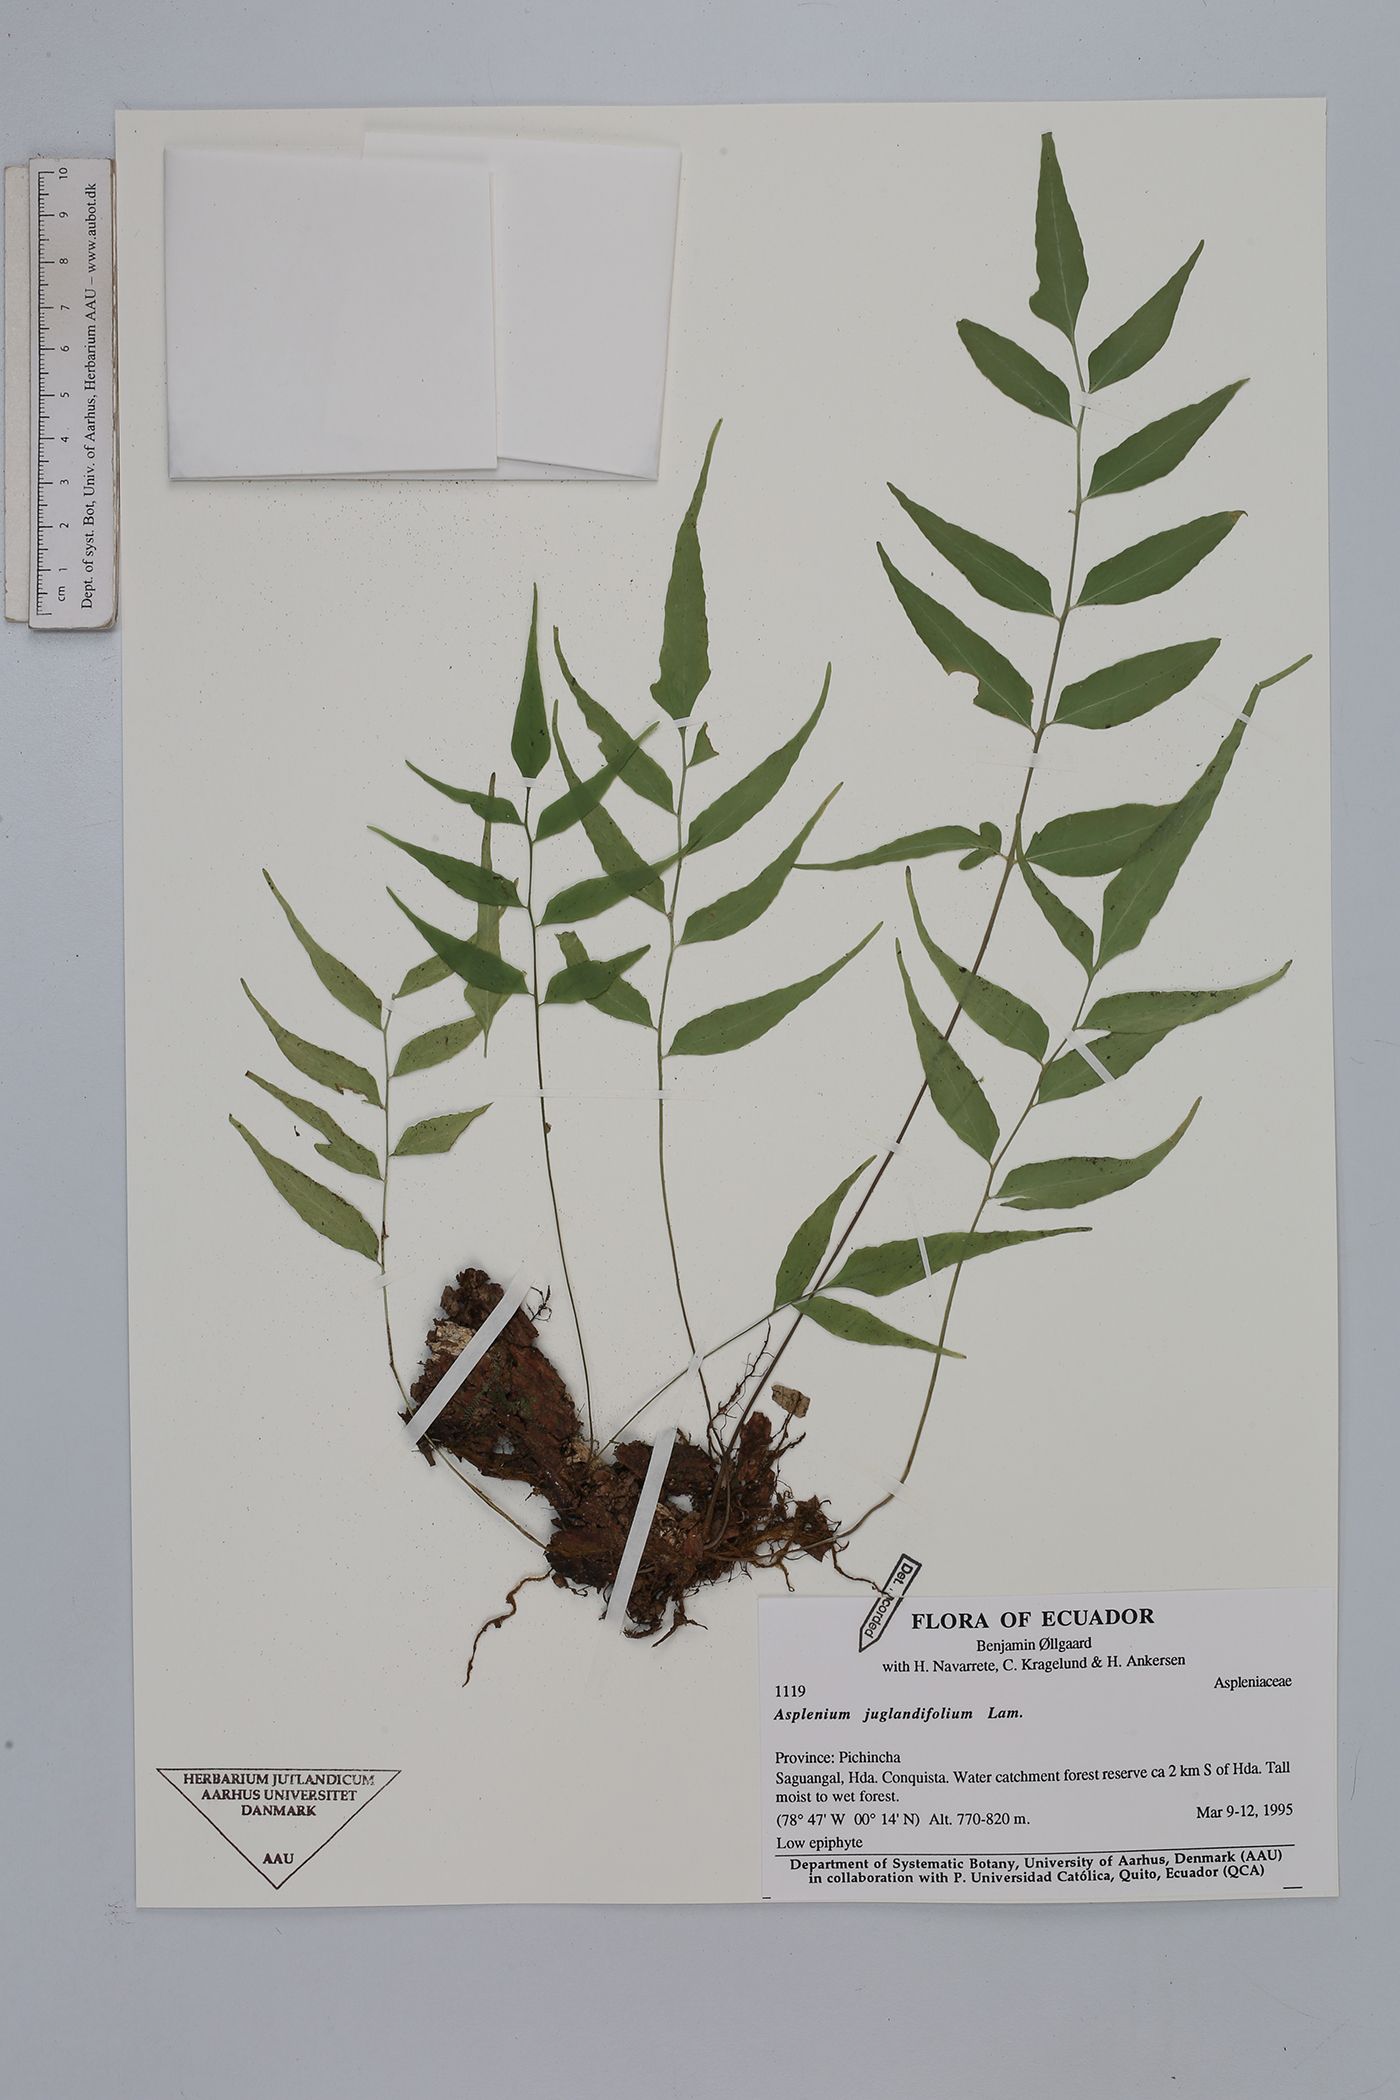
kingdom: Plantae
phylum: Tracheophyta
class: Polypodiopsida
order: Polypodiales
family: Aspleniaceae
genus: Asplenium
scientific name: Asplenium juglandifolium
